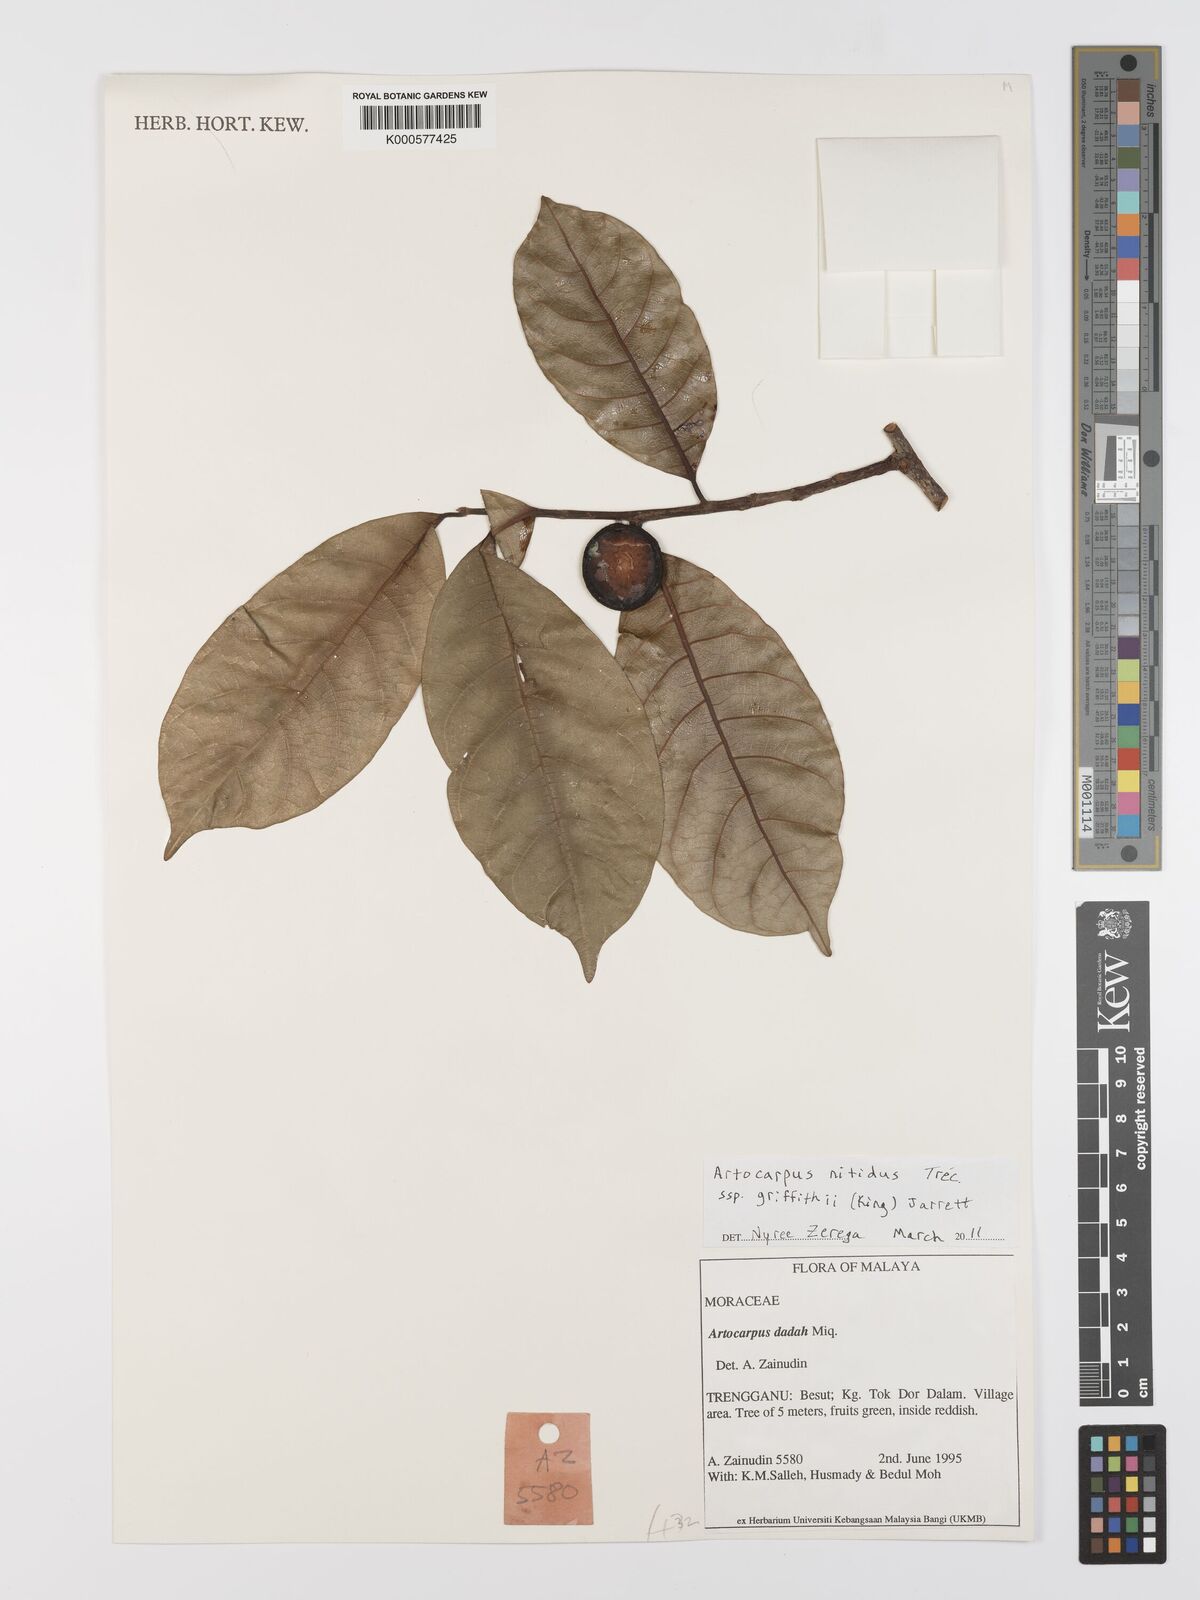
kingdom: Plantae
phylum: Tracheophyta
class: Magnoliopsida
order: Rosales
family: Moraceae
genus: Artocarpus
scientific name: Artocarpus
